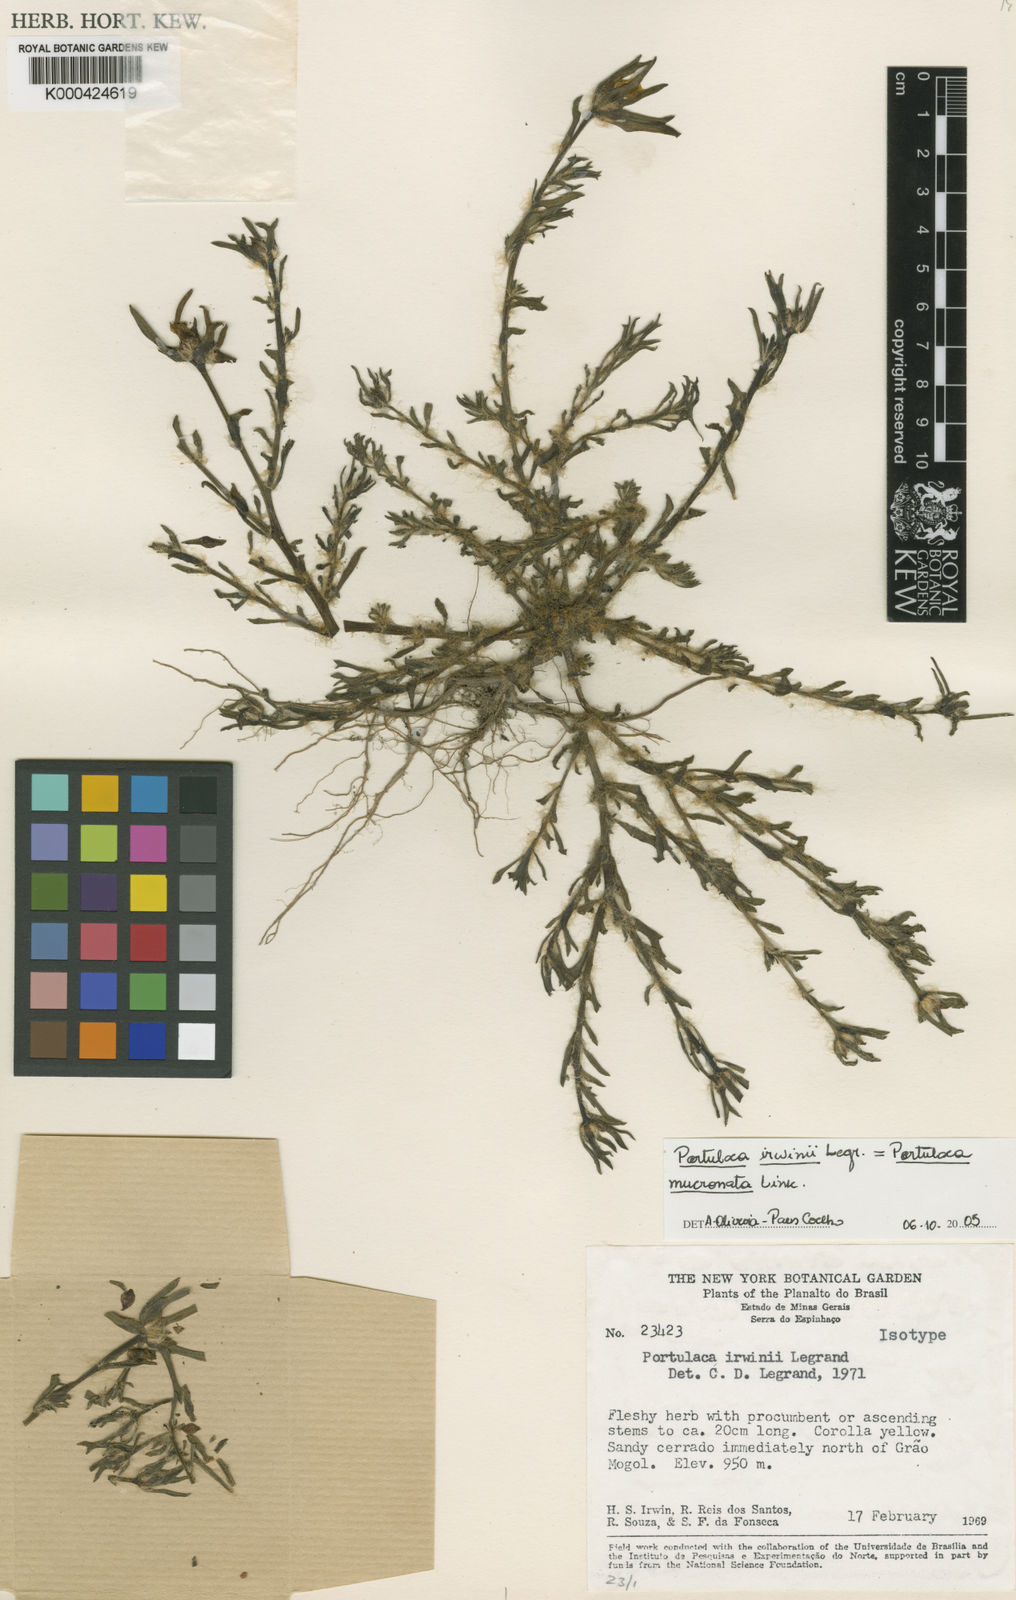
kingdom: Plantae
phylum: Tracheophyta
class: Magnoliopsida
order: Caryophyllales
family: Portulacaceae
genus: Portulaca
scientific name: Portulaca mucronata
